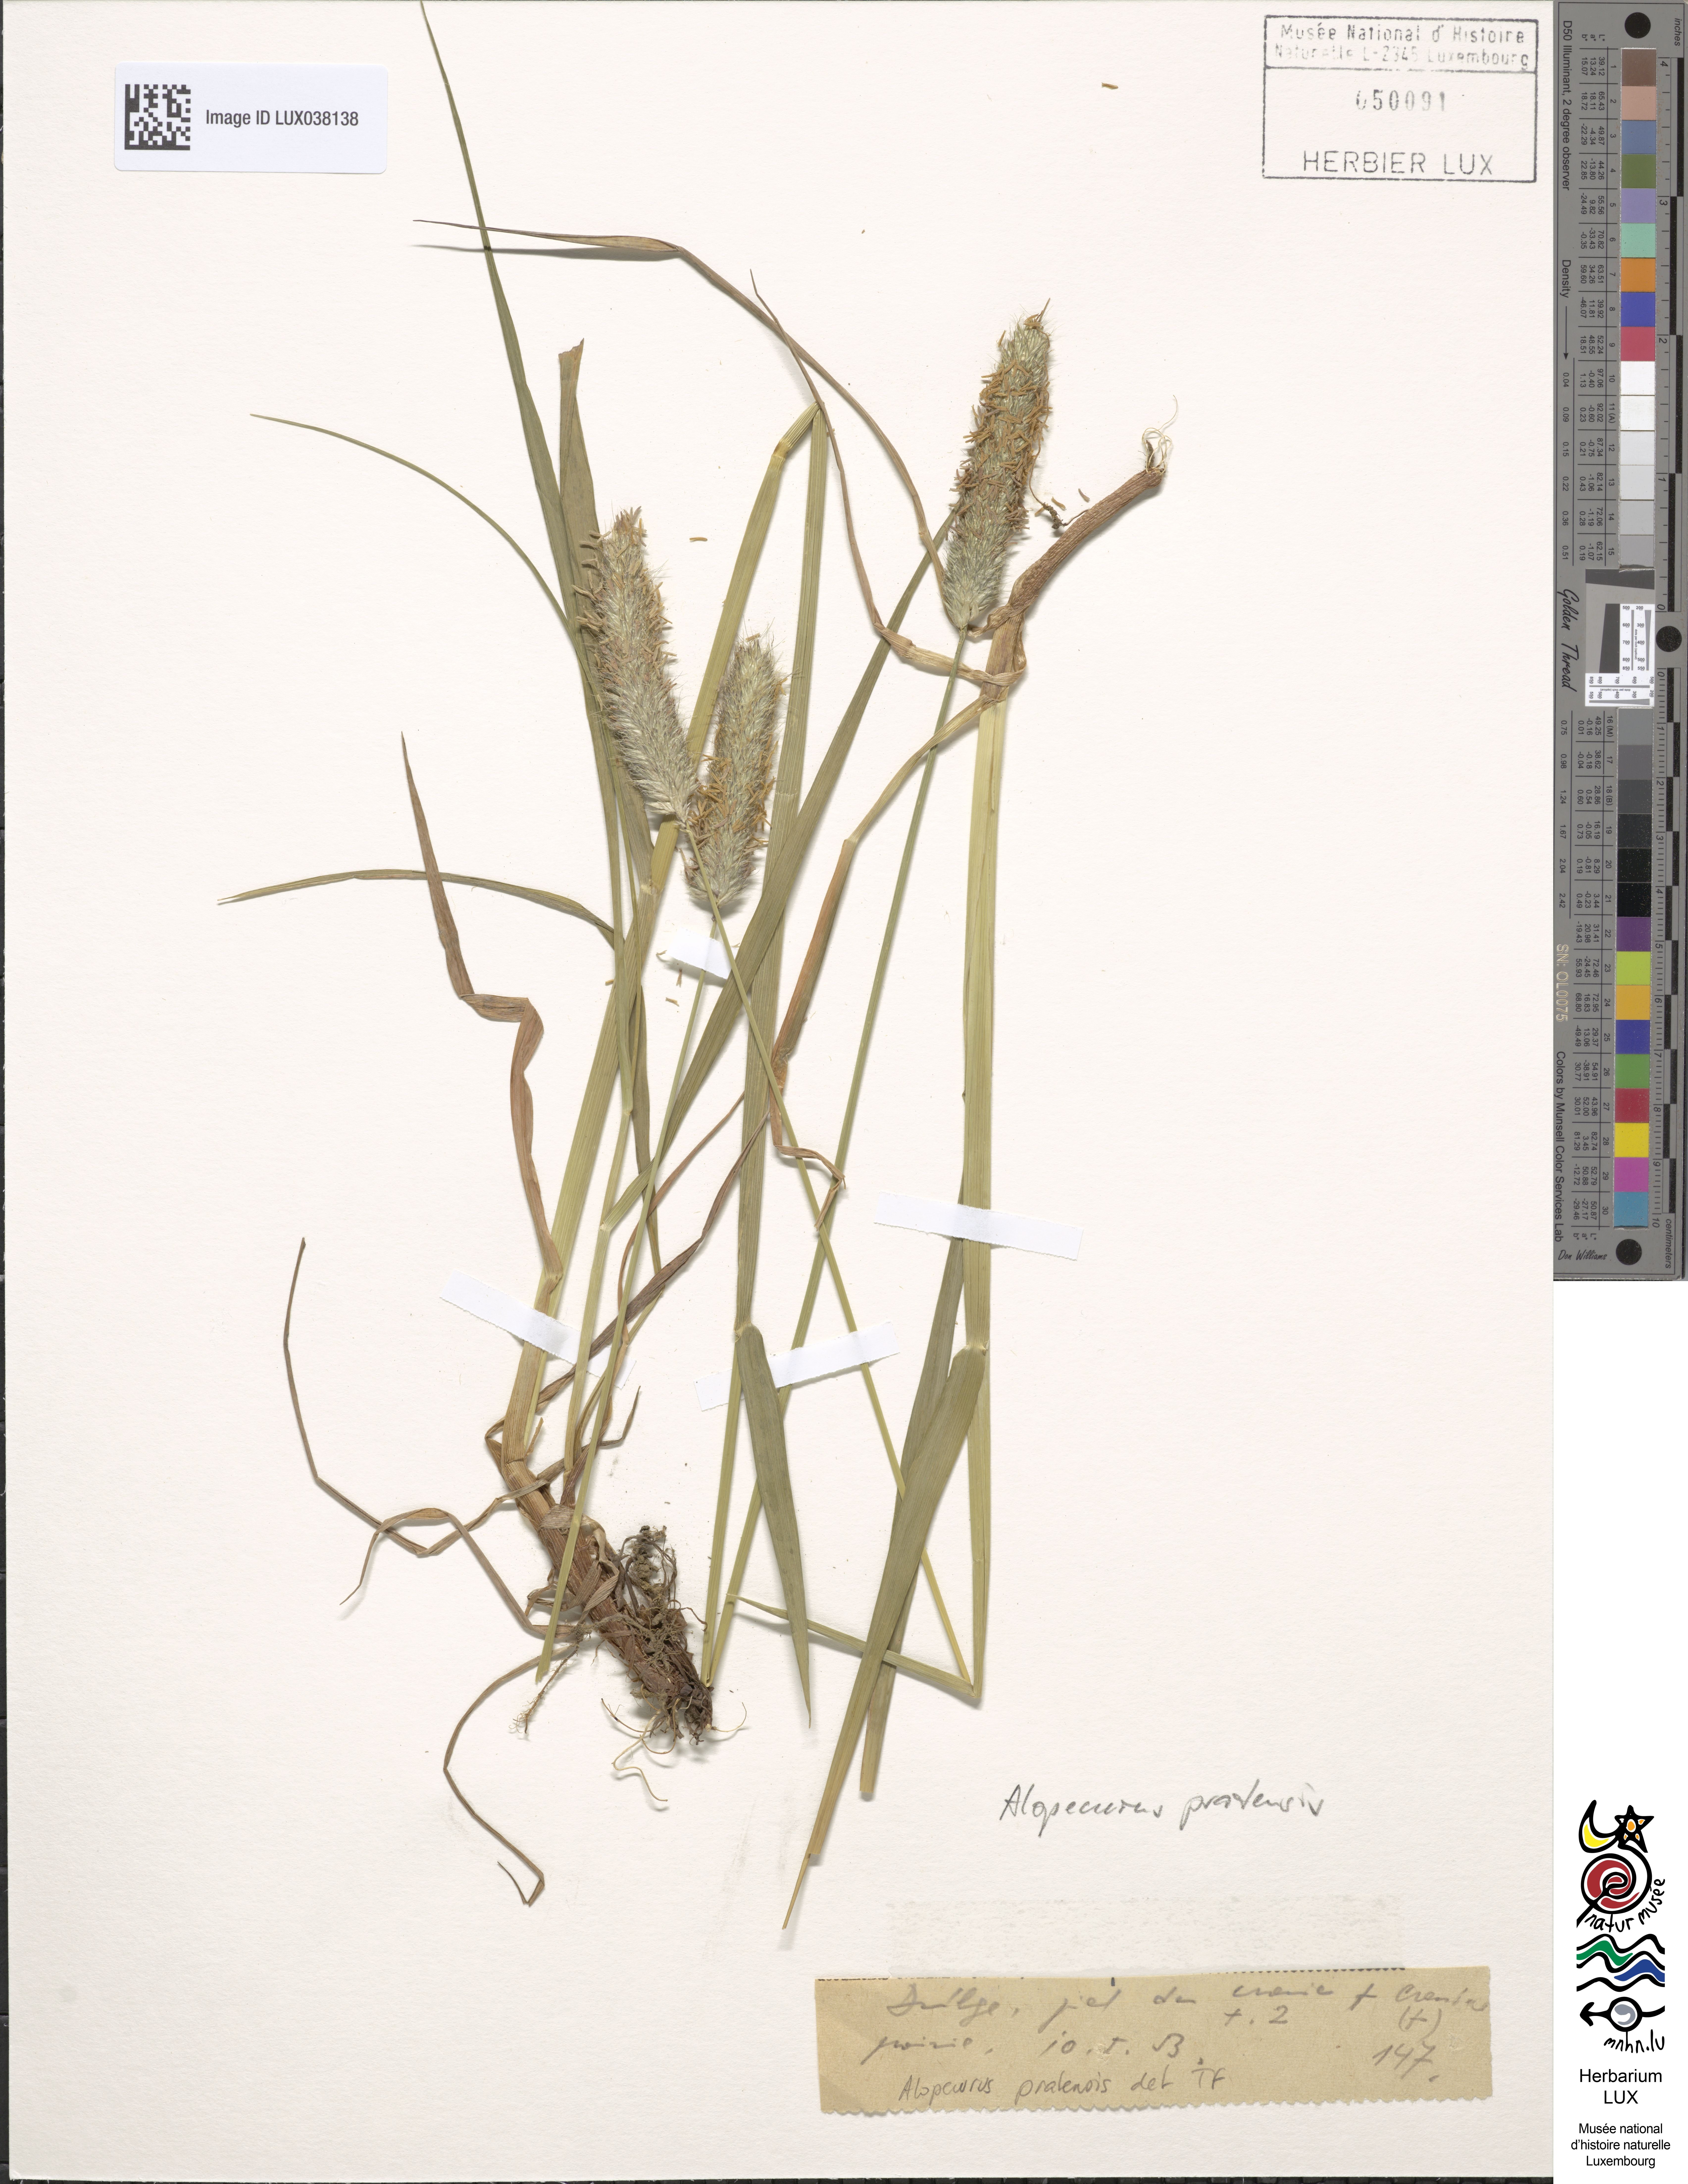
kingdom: Plantae
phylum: Tracheophyta
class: Liliopsida
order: Poales
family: Poaceae
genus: Alopecurus
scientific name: Alopecurus pratensis
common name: Meadow foxtail
